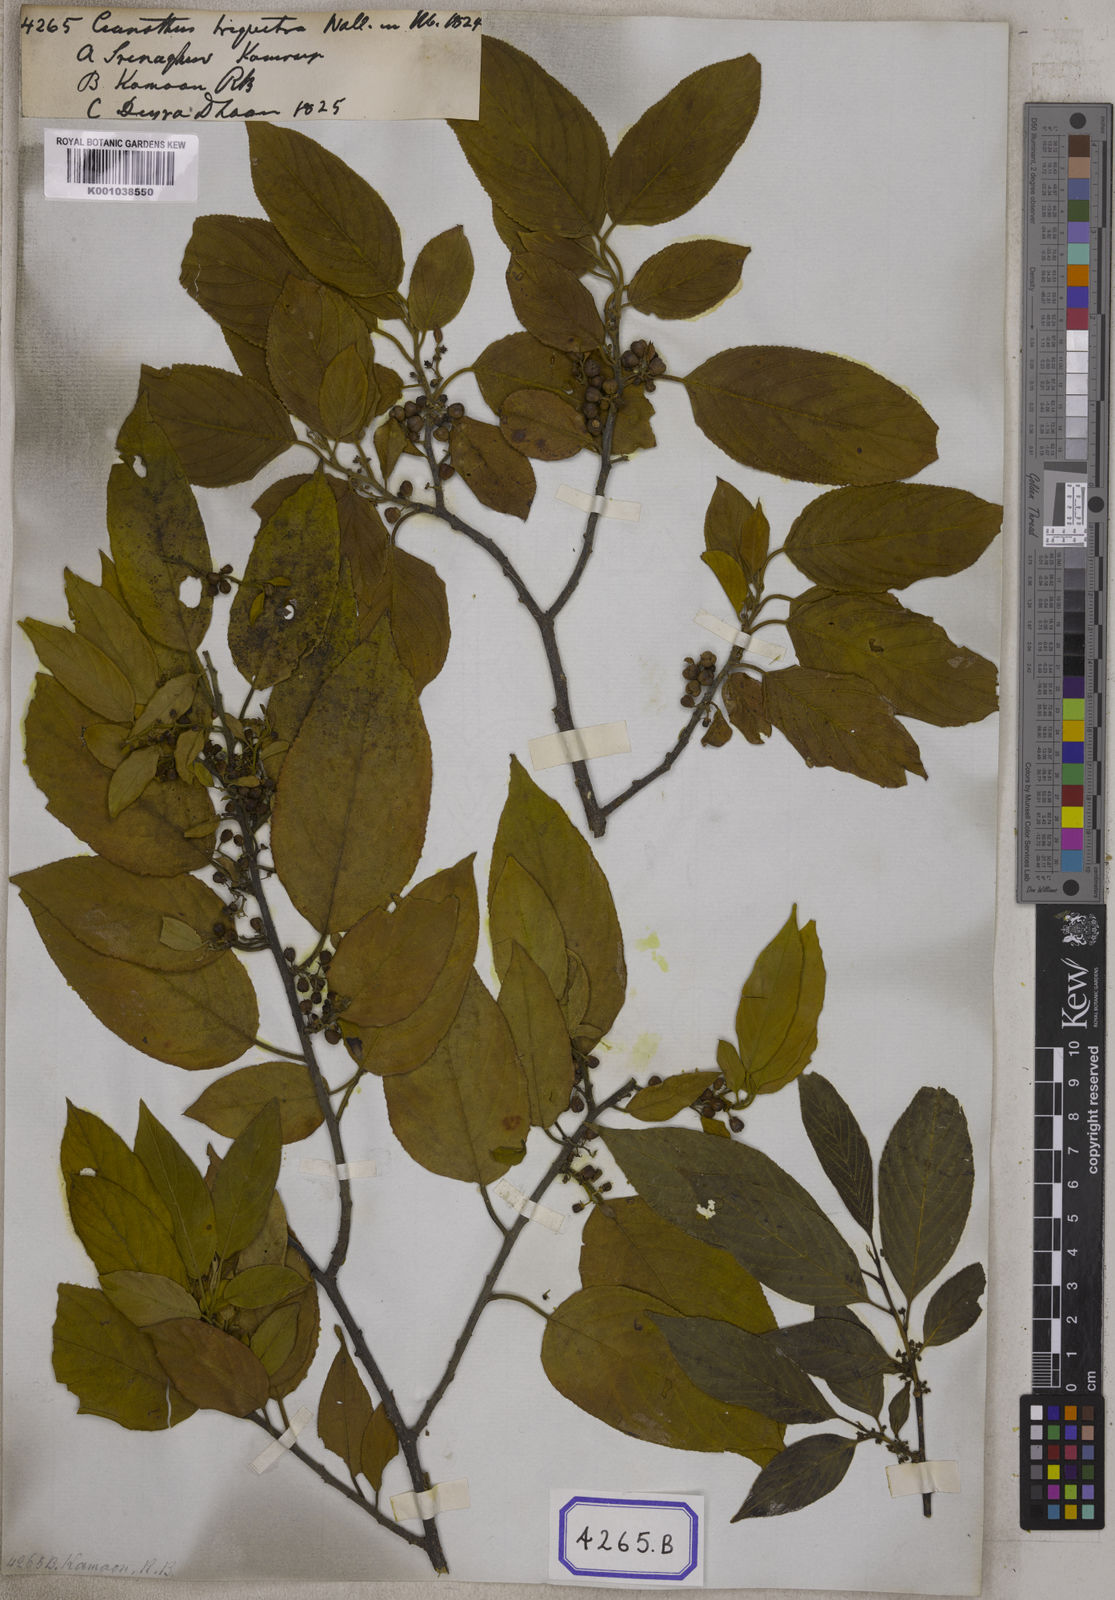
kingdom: Plantae
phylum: Tracheophyta
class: Magnoliopsida
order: Rosales
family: Rhamnaceae
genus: Rhamnus
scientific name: Rhamnus triquetra
